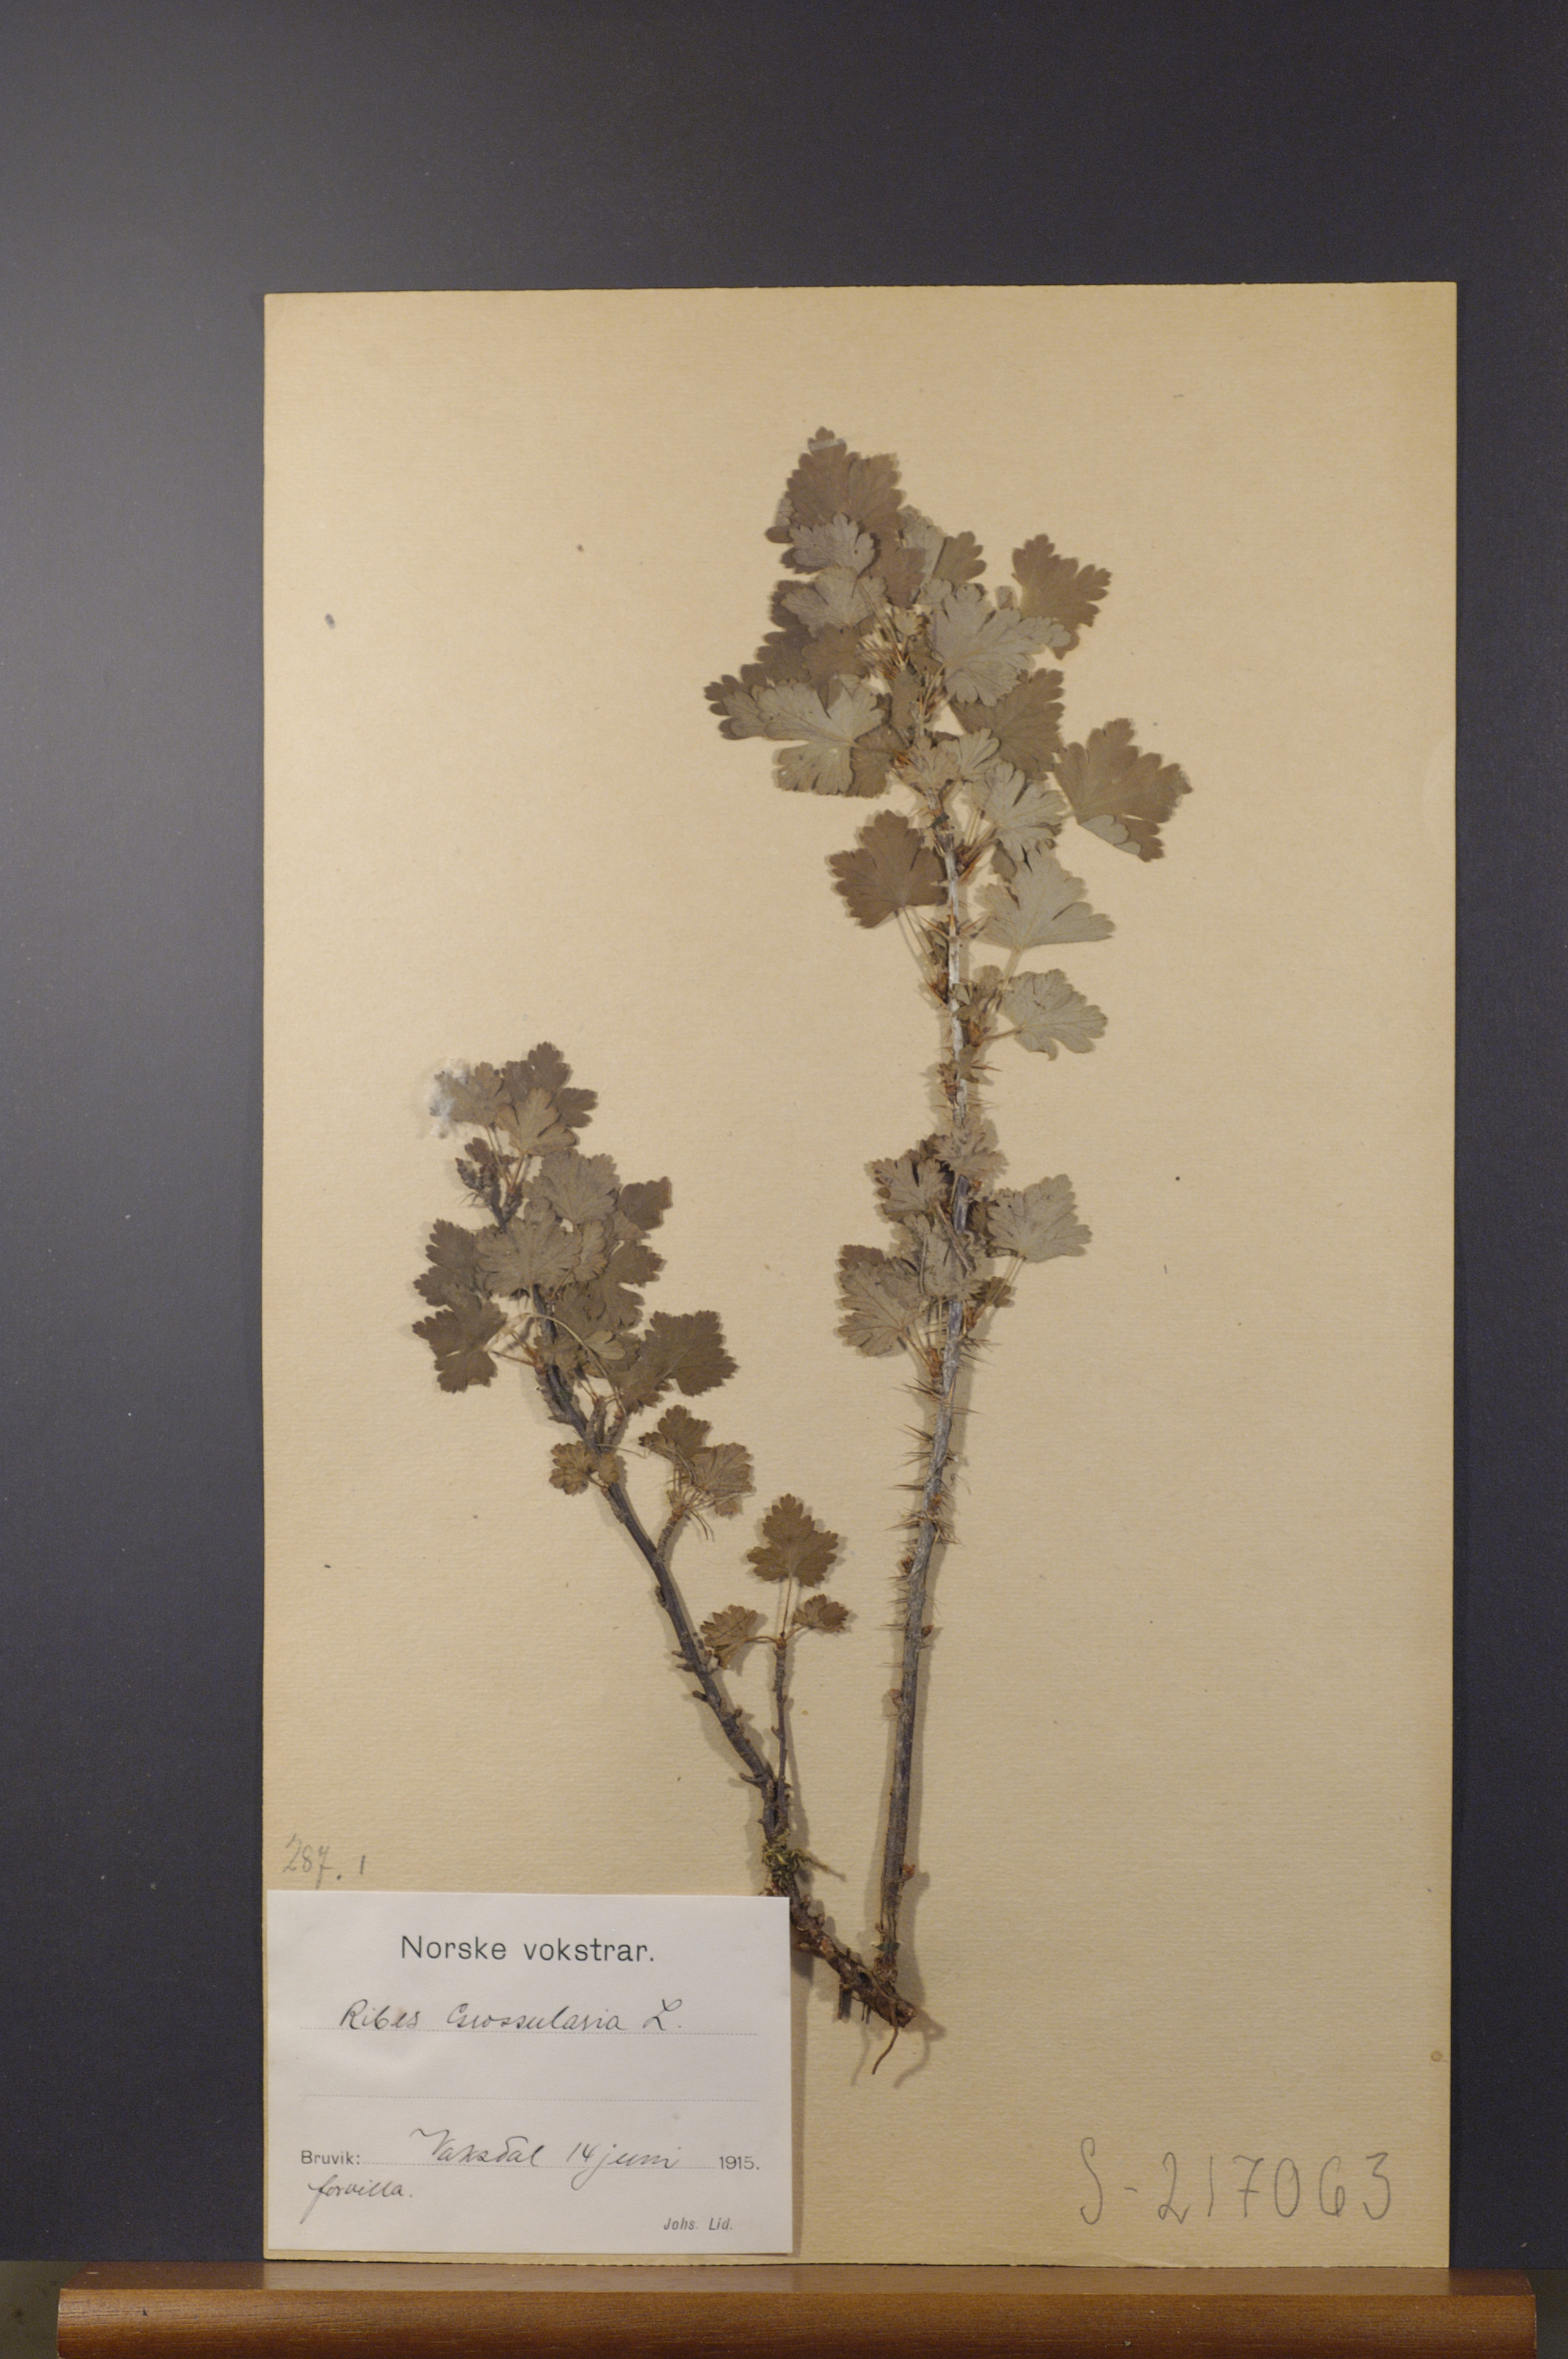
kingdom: Plantae
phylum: Tracheophyta
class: Magnoliopsida
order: Saxifragales
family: Grossulariaceae
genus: Ribes
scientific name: Ribes uva-crispa
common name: Gooseberry
